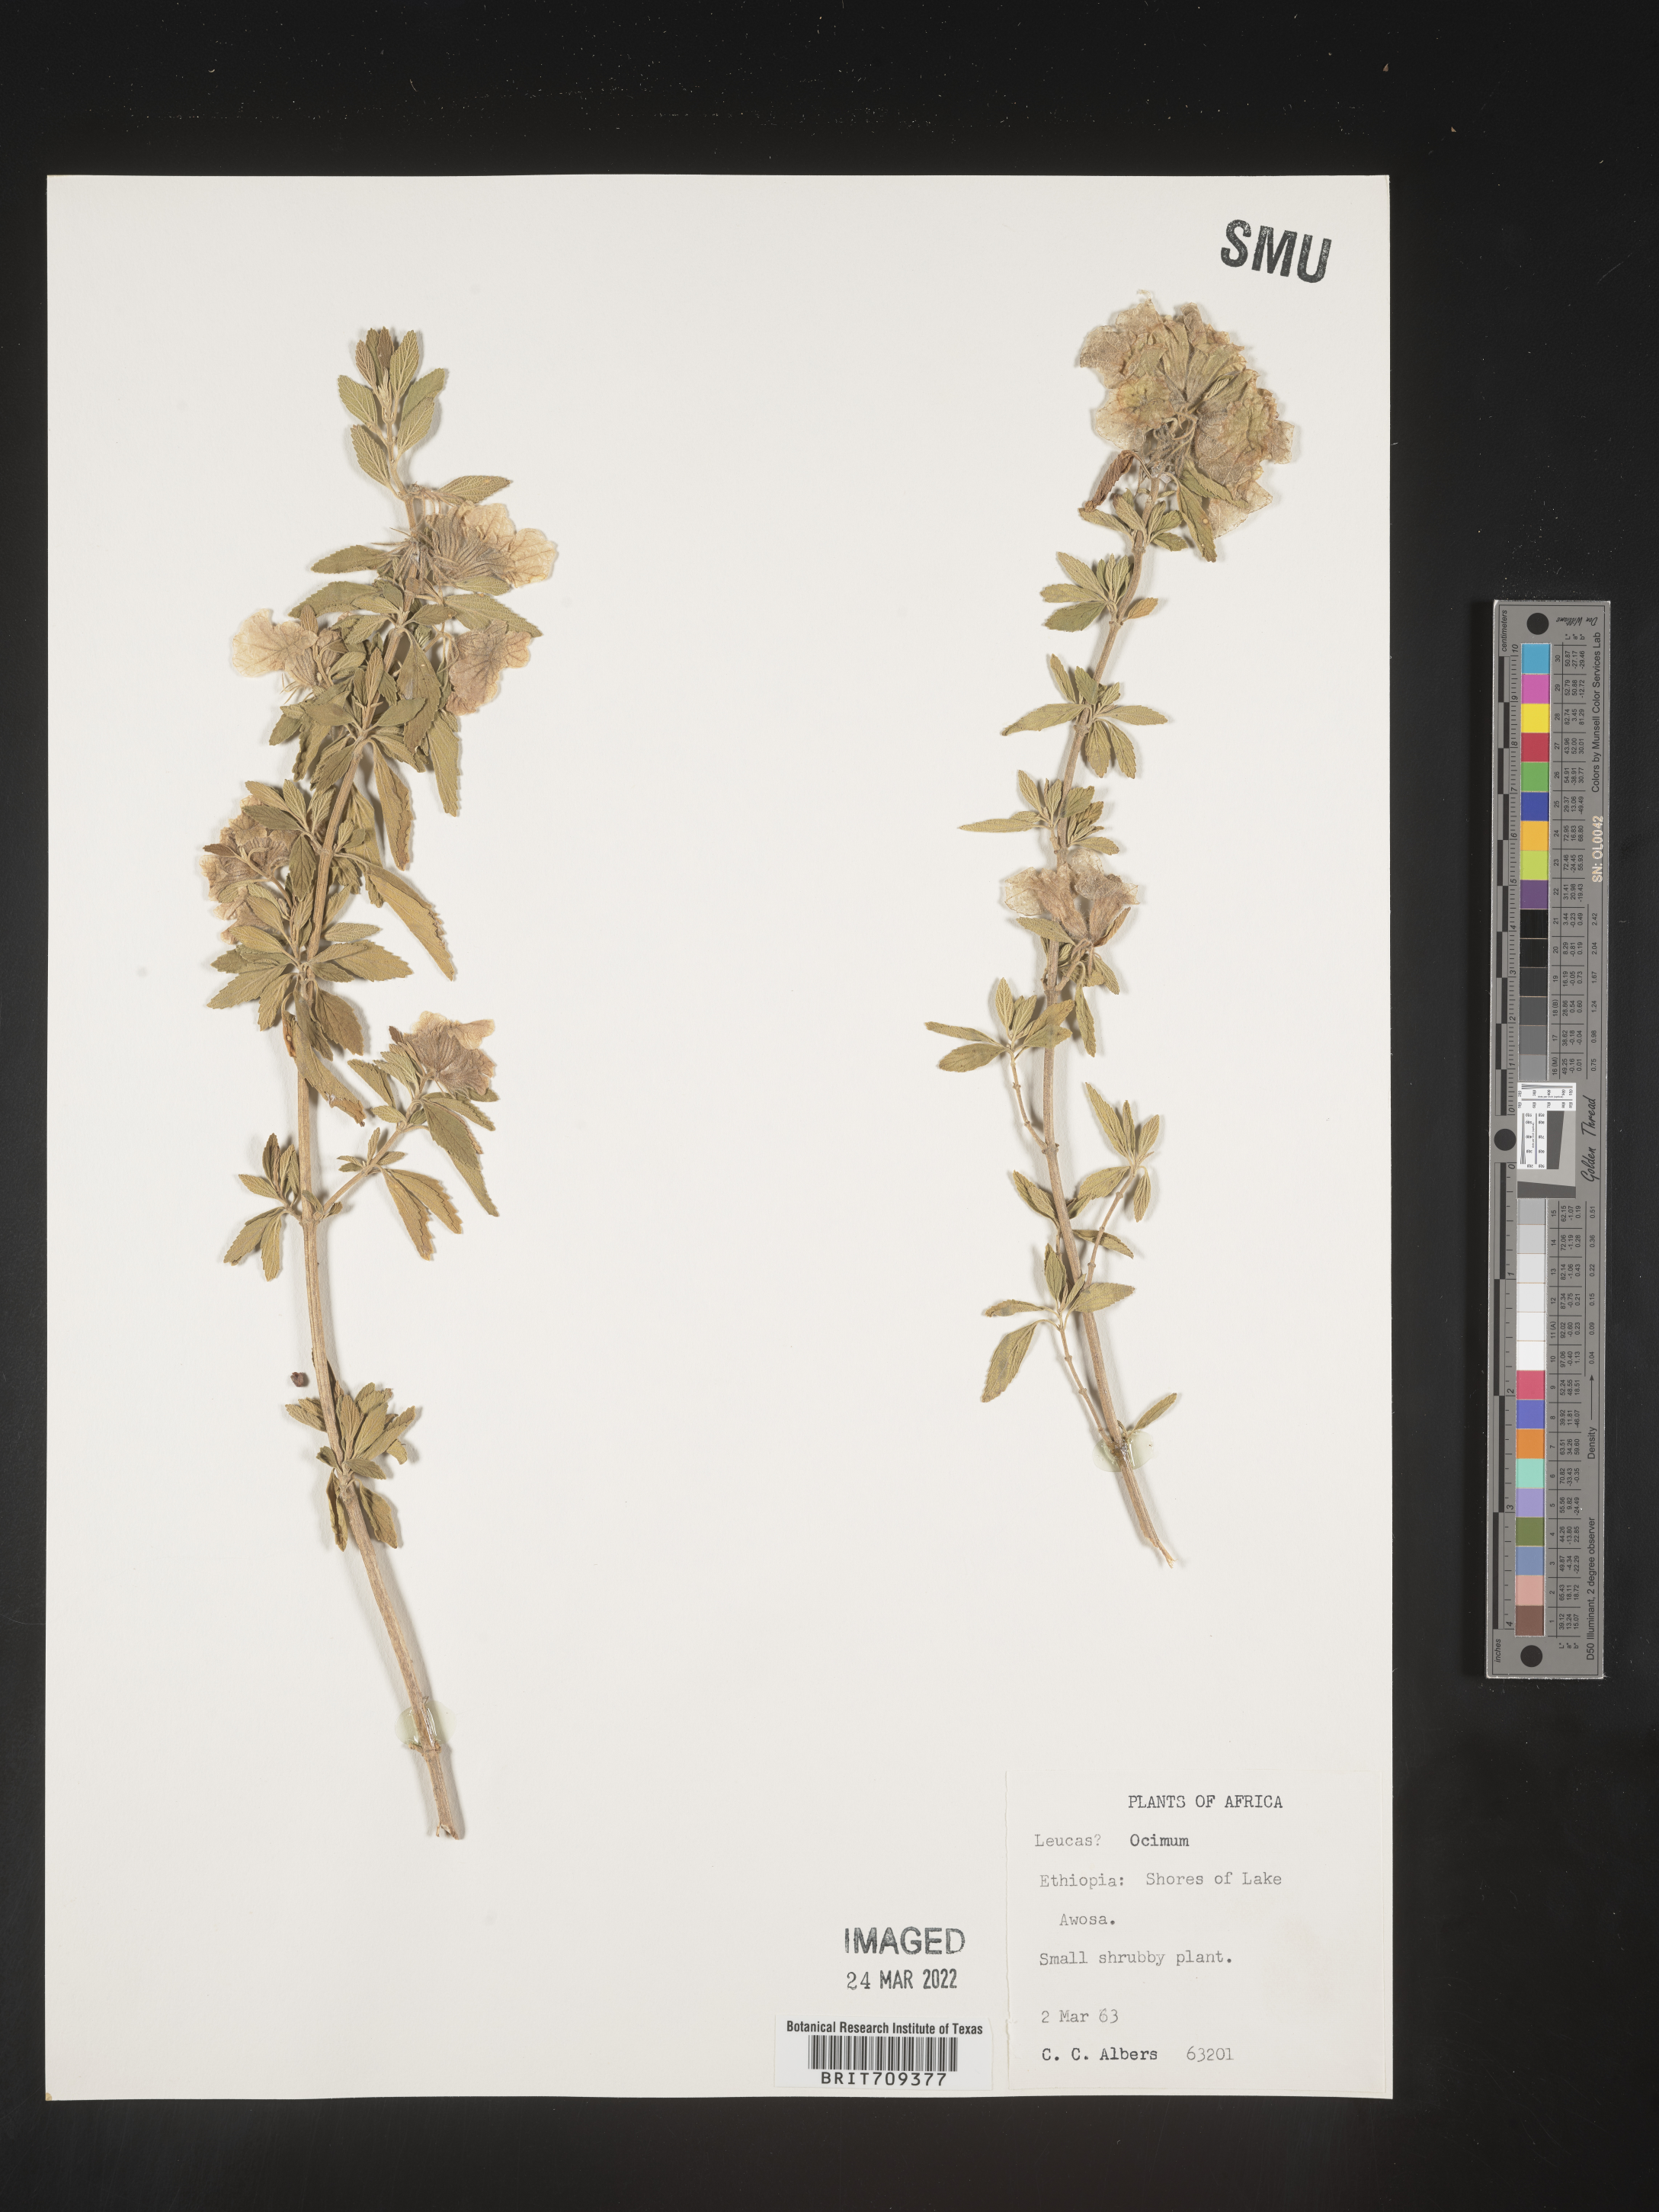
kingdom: Plantae
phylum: Tracheophyta
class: Magnoliopsida
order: Lamiales
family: Lamiaceae
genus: Ocimum
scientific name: Ocimum
